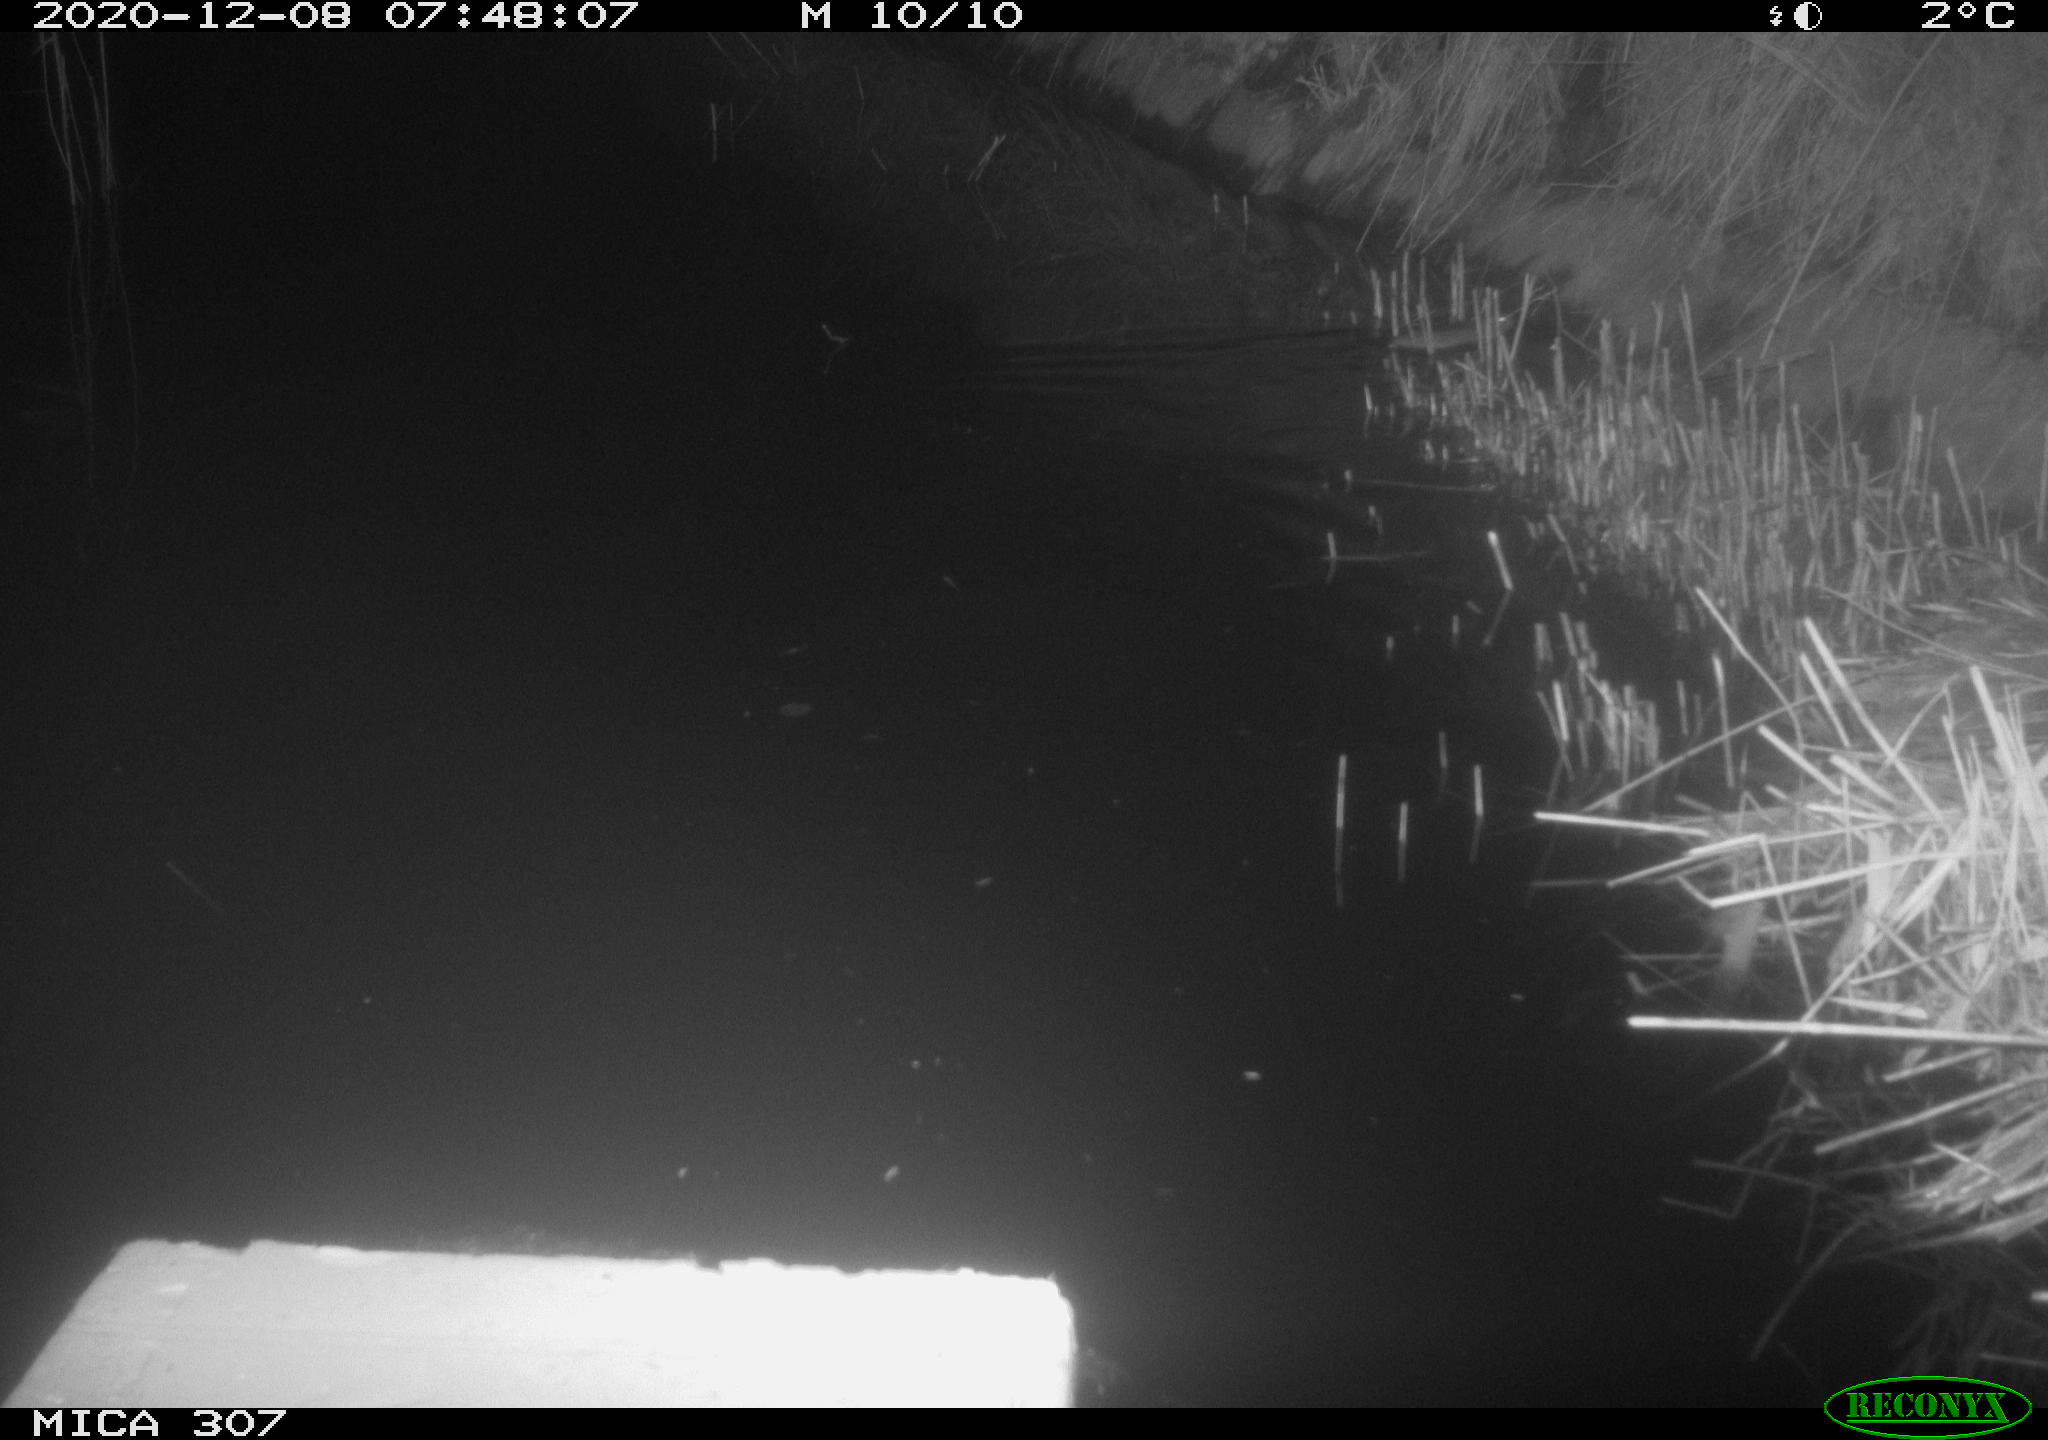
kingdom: Animalia
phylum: Chordata
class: Mammalia
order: Rodentia
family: Muridae
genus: Rattus
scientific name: Rattus norvegicus
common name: Brown rat
